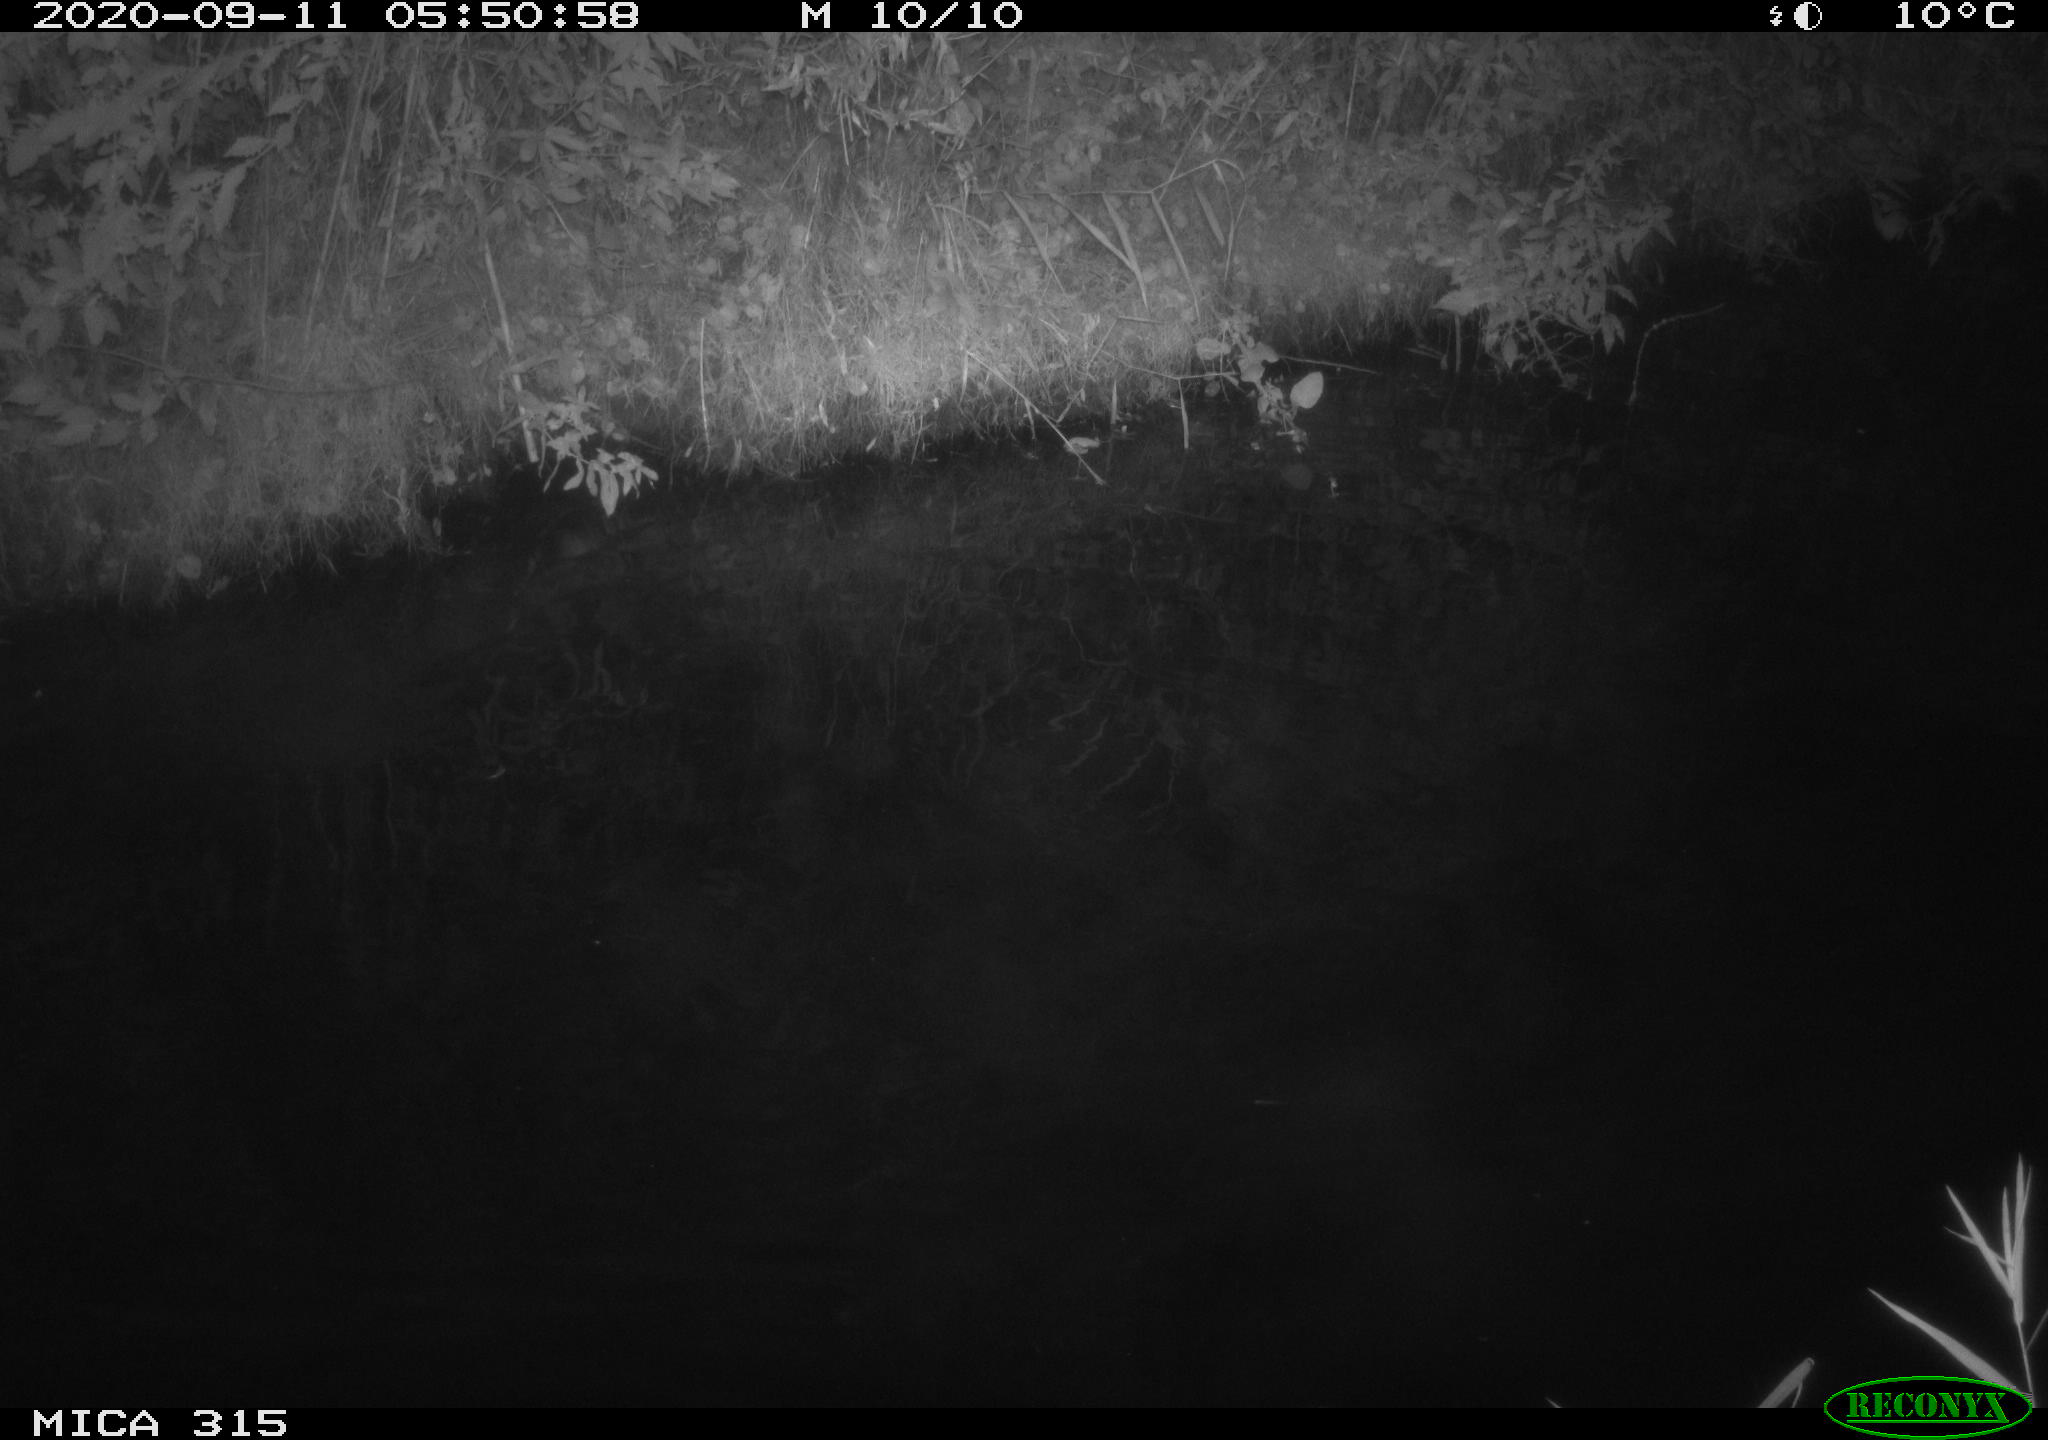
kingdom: Animalia
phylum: Chordata
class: Aves
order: Anseriformes
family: Anatidae
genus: Anas
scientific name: Anas platyrhynchos
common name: Mallard
